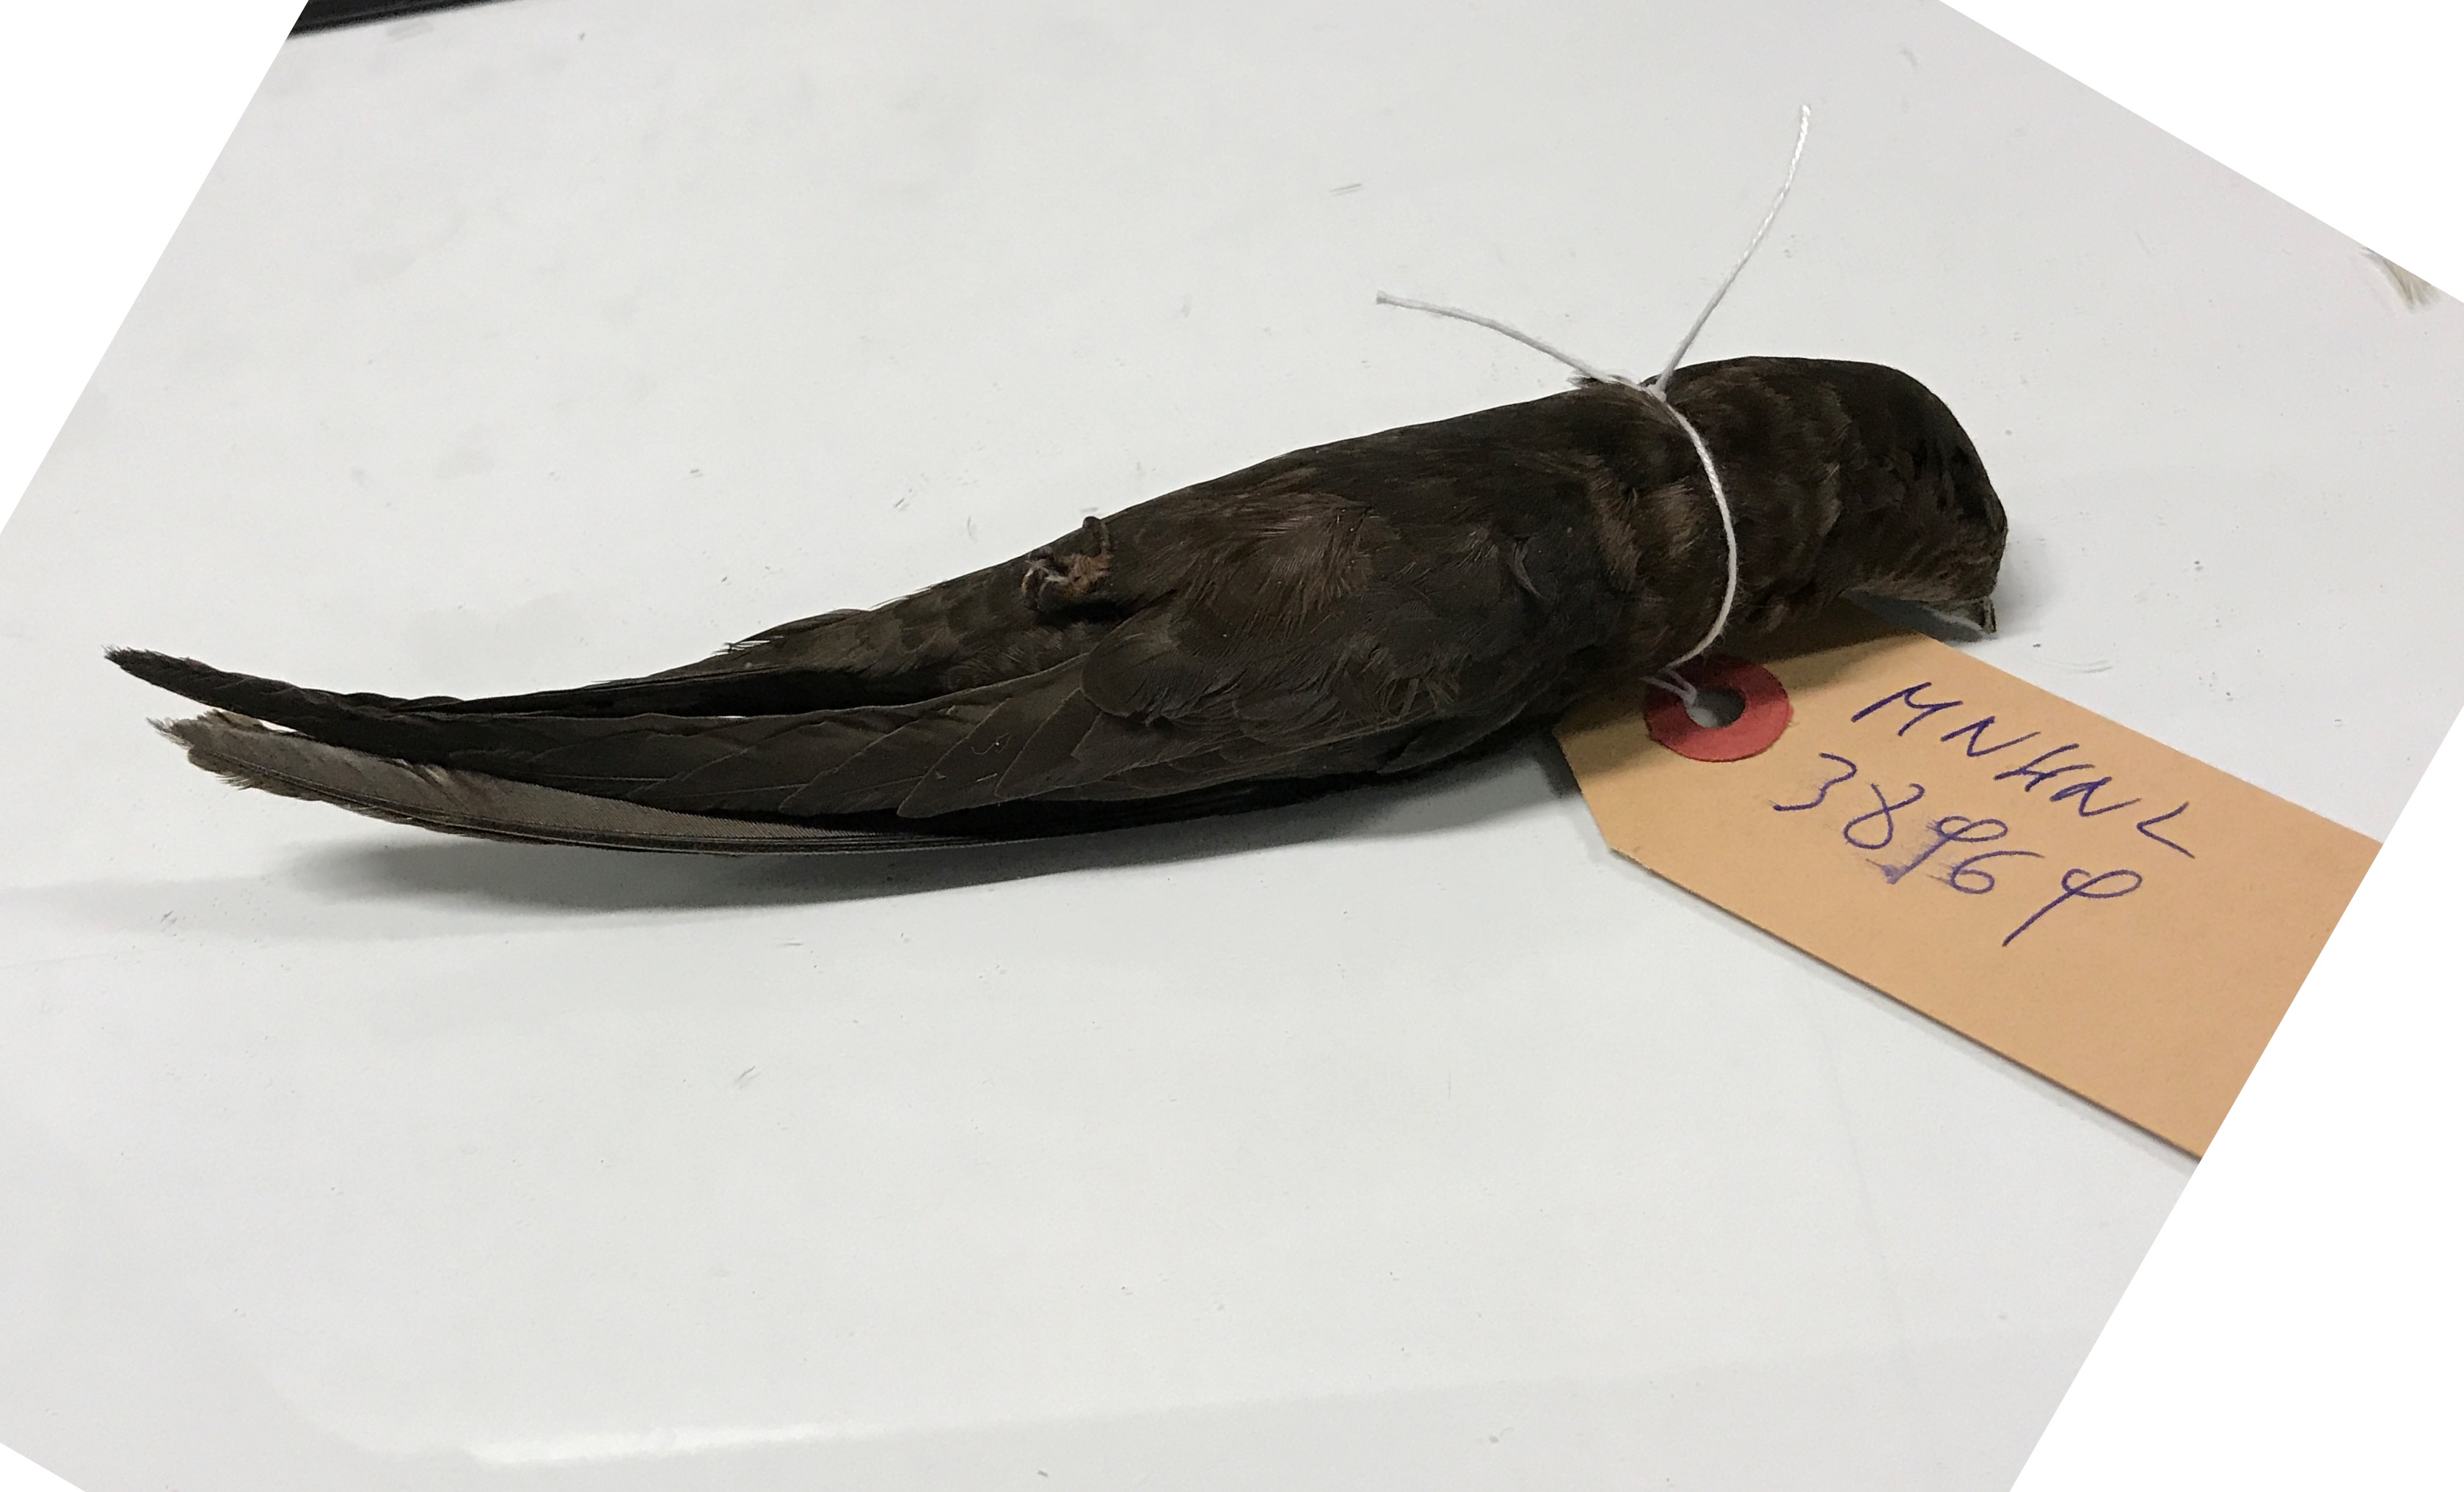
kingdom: Animalia
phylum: Chordata
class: Aves
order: Apodiformes
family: Apodidae
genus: Apus
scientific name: Apus apus
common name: Common swift
